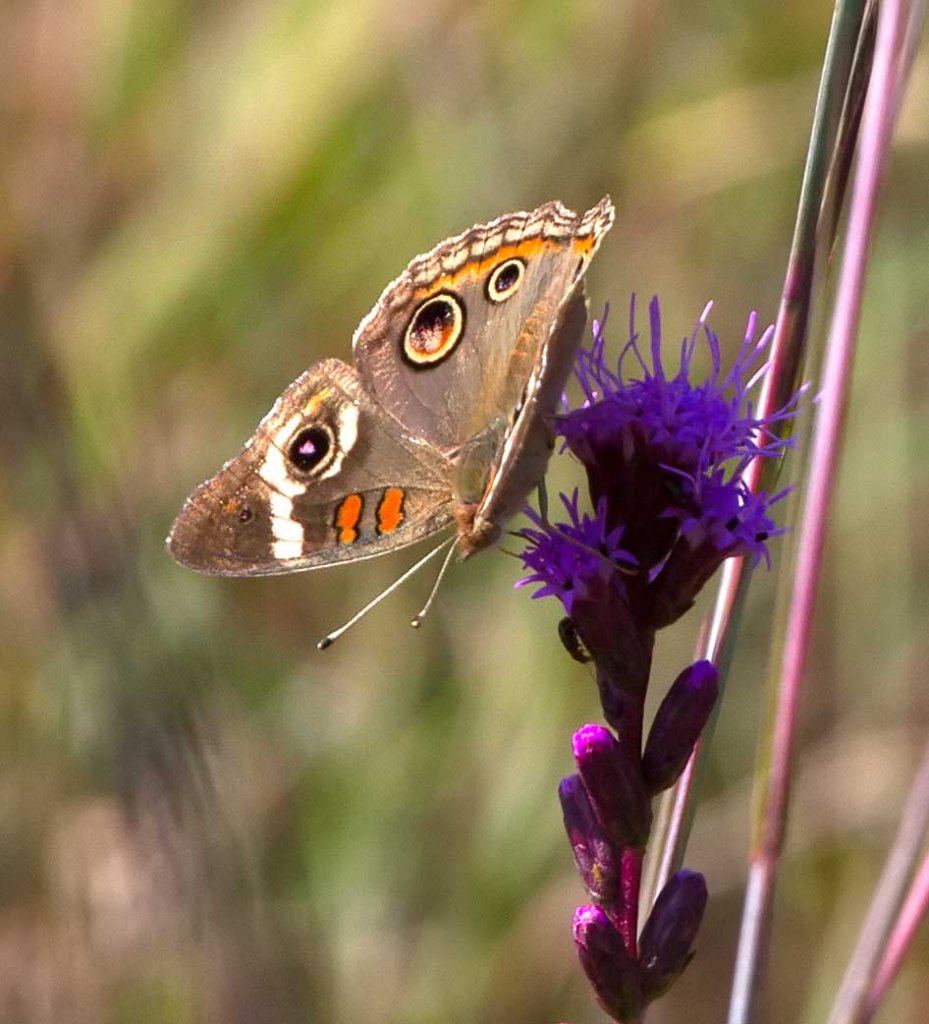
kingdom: Animalia
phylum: Arthropoda
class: Insecta
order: Lepidoptera
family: Nymphalidae
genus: Junonia
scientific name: Junonia coenia
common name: Common Buckeye
